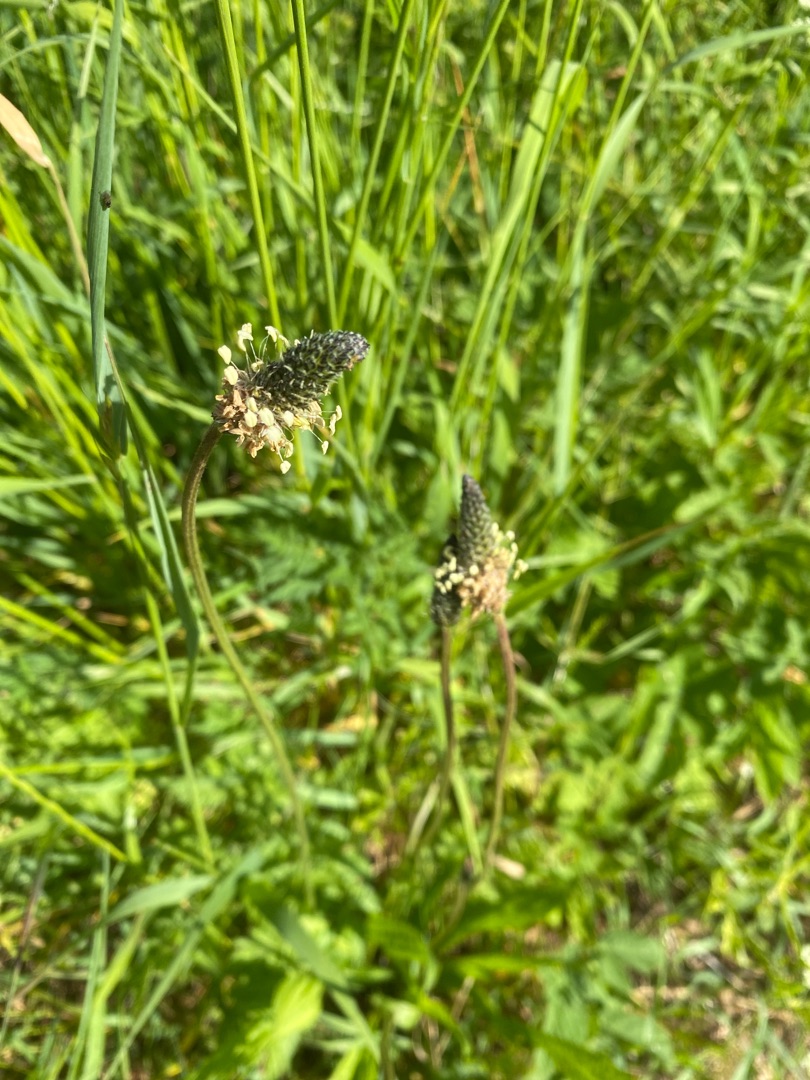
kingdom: Plantae
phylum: Tracheophyta
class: Magnoliopsida
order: Lamiales
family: Plantaginaceae
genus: Plantago
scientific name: Plantago lanceolata
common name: Lancet-vejbred
